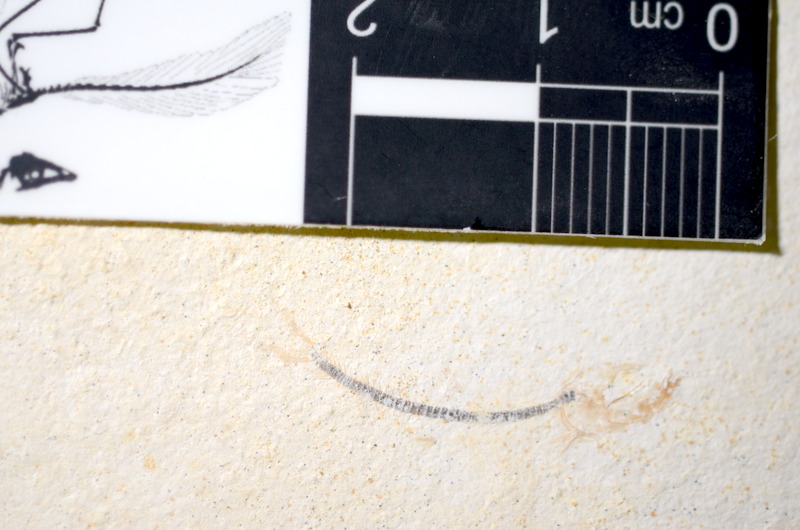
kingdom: Animalia
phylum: Chordata
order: Salmoniformes
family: Orthogonikleithridae
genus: Orthogonikleithrus
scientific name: Orthogonikleithrus hoelli
